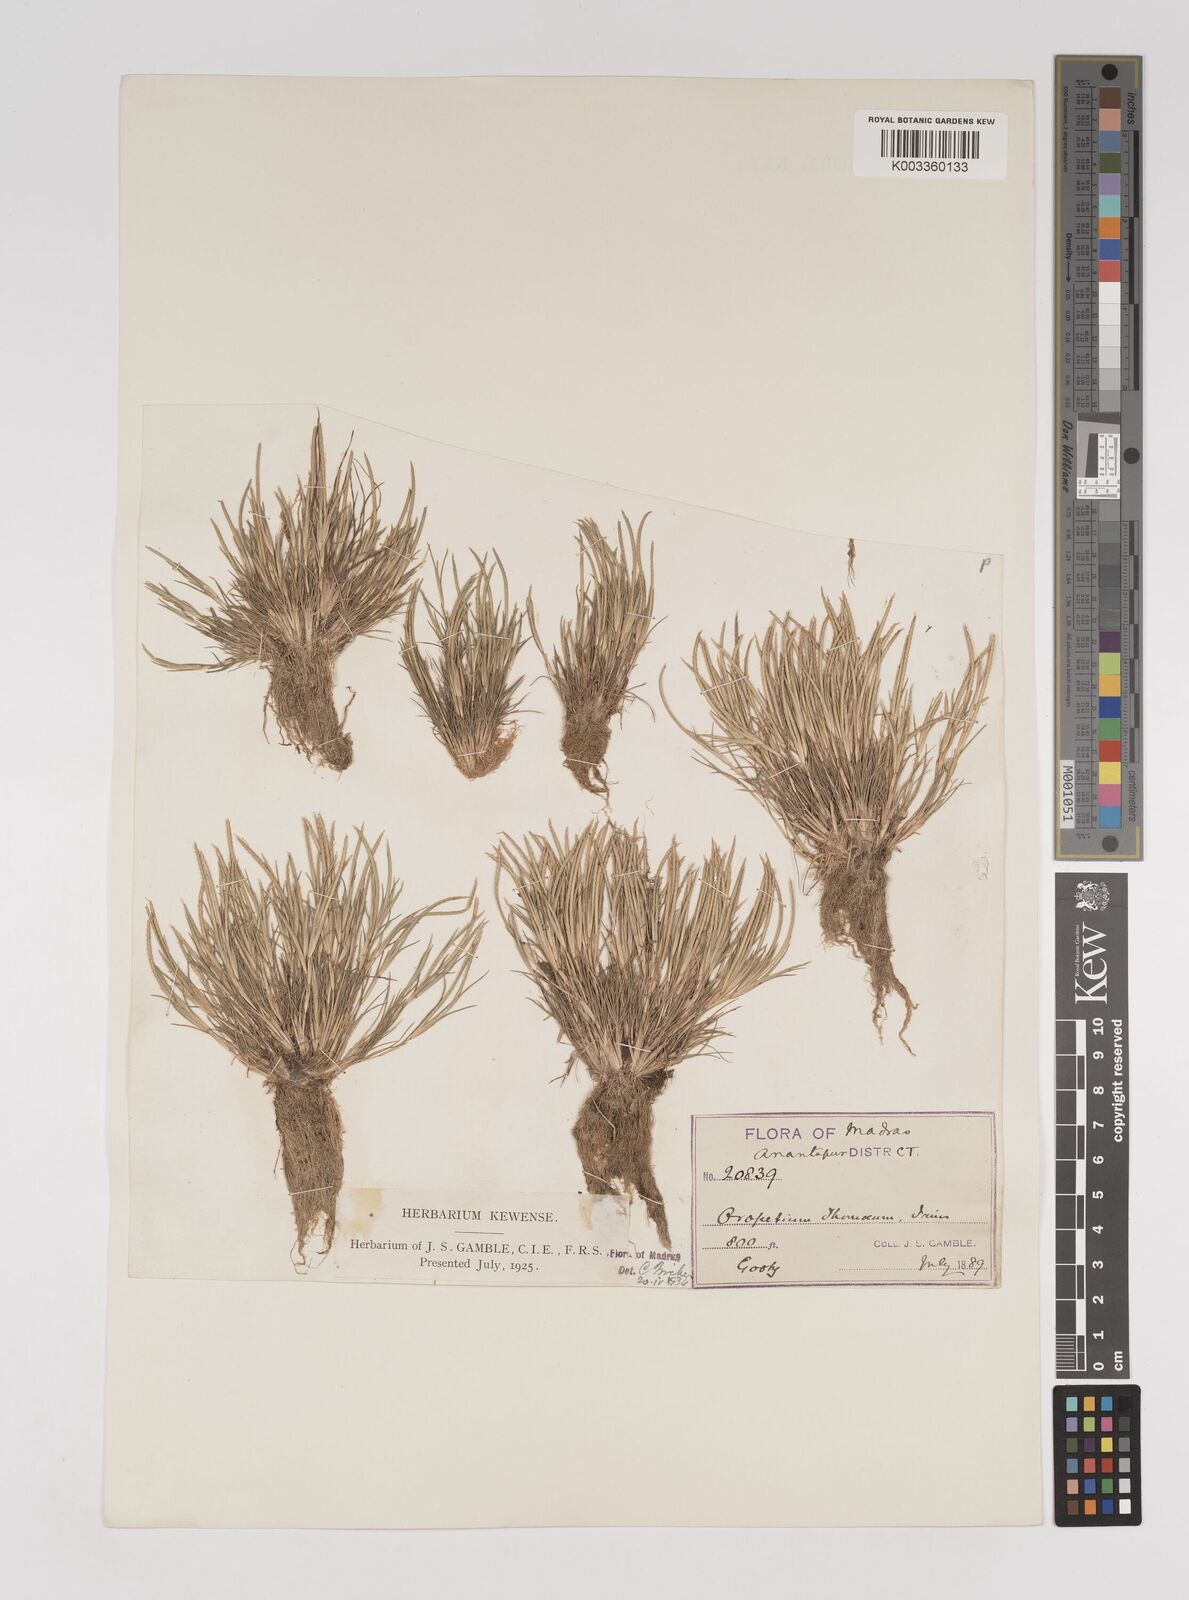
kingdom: Plantae
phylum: Tracheophyta
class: Liliopsida
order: Poales
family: Poaceae
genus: Oropetium
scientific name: Oropetium thomaeum
